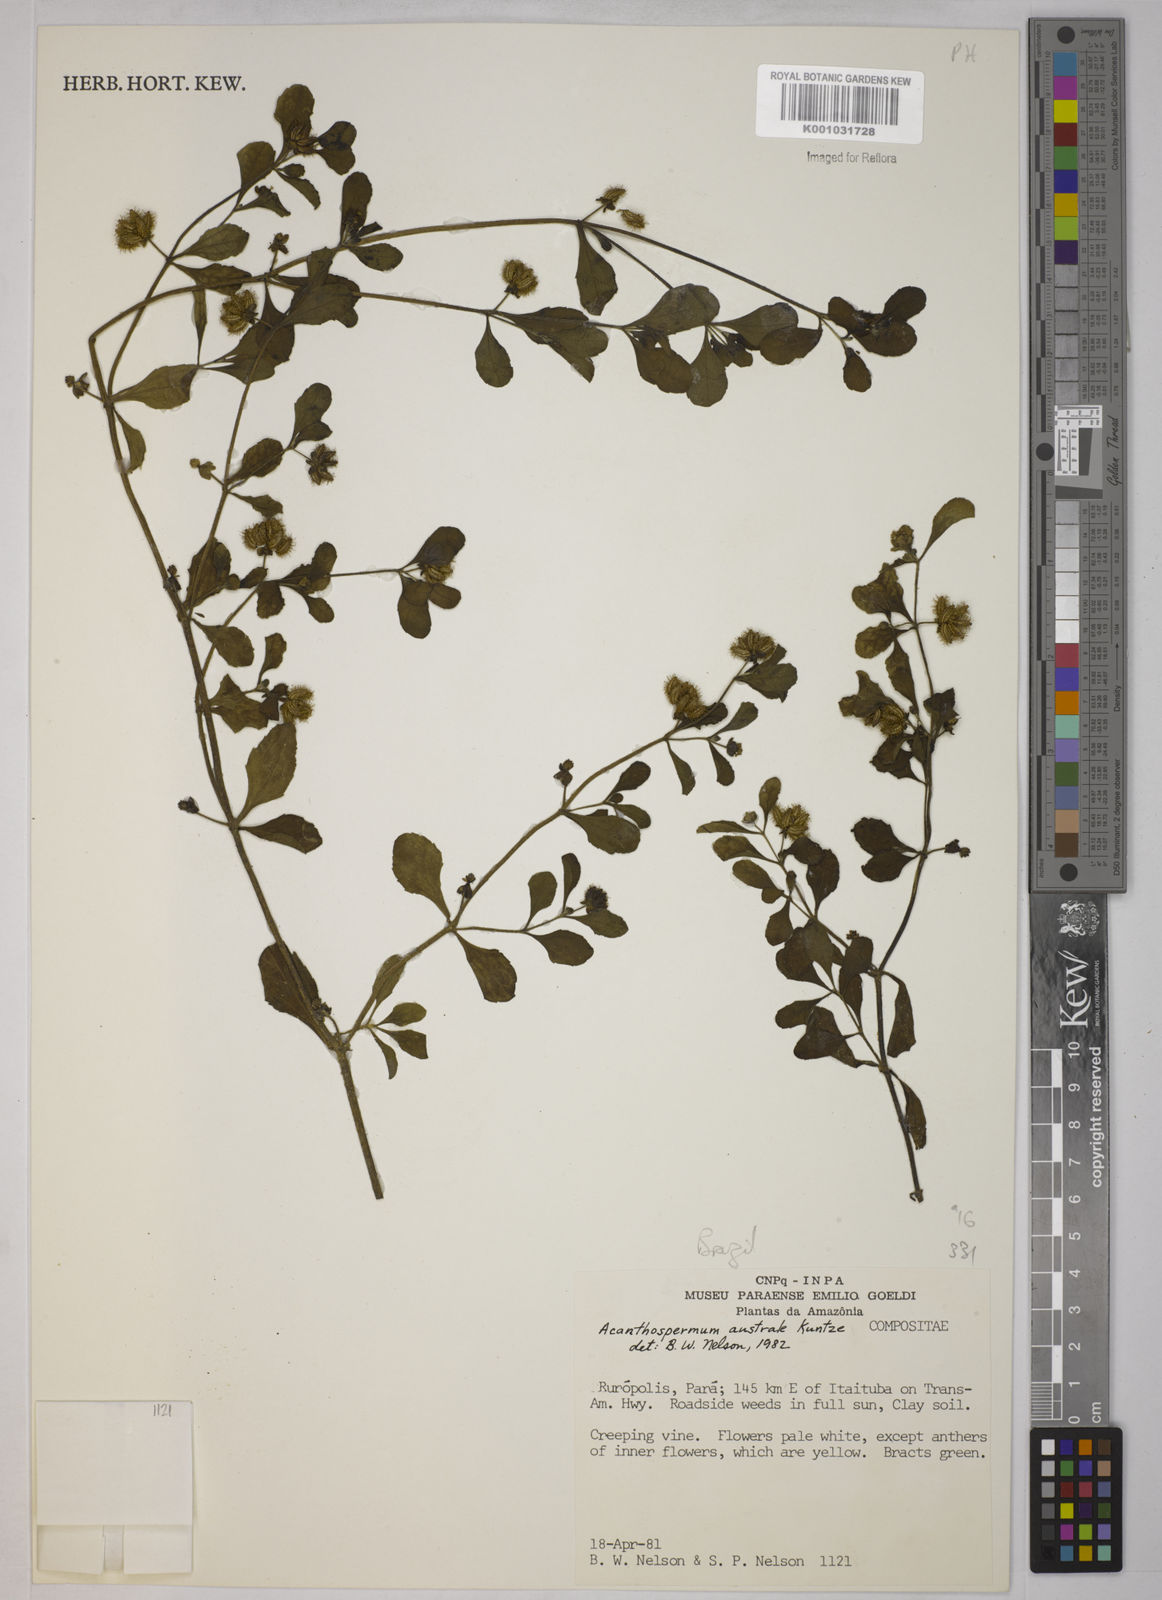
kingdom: Plantae
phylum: Tracheophyta
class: Magnoliopsida
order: Asterales
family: Asteraceae
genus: Acanthospermum
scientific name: Acanthospermum australe
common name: Paraguayan starbur
